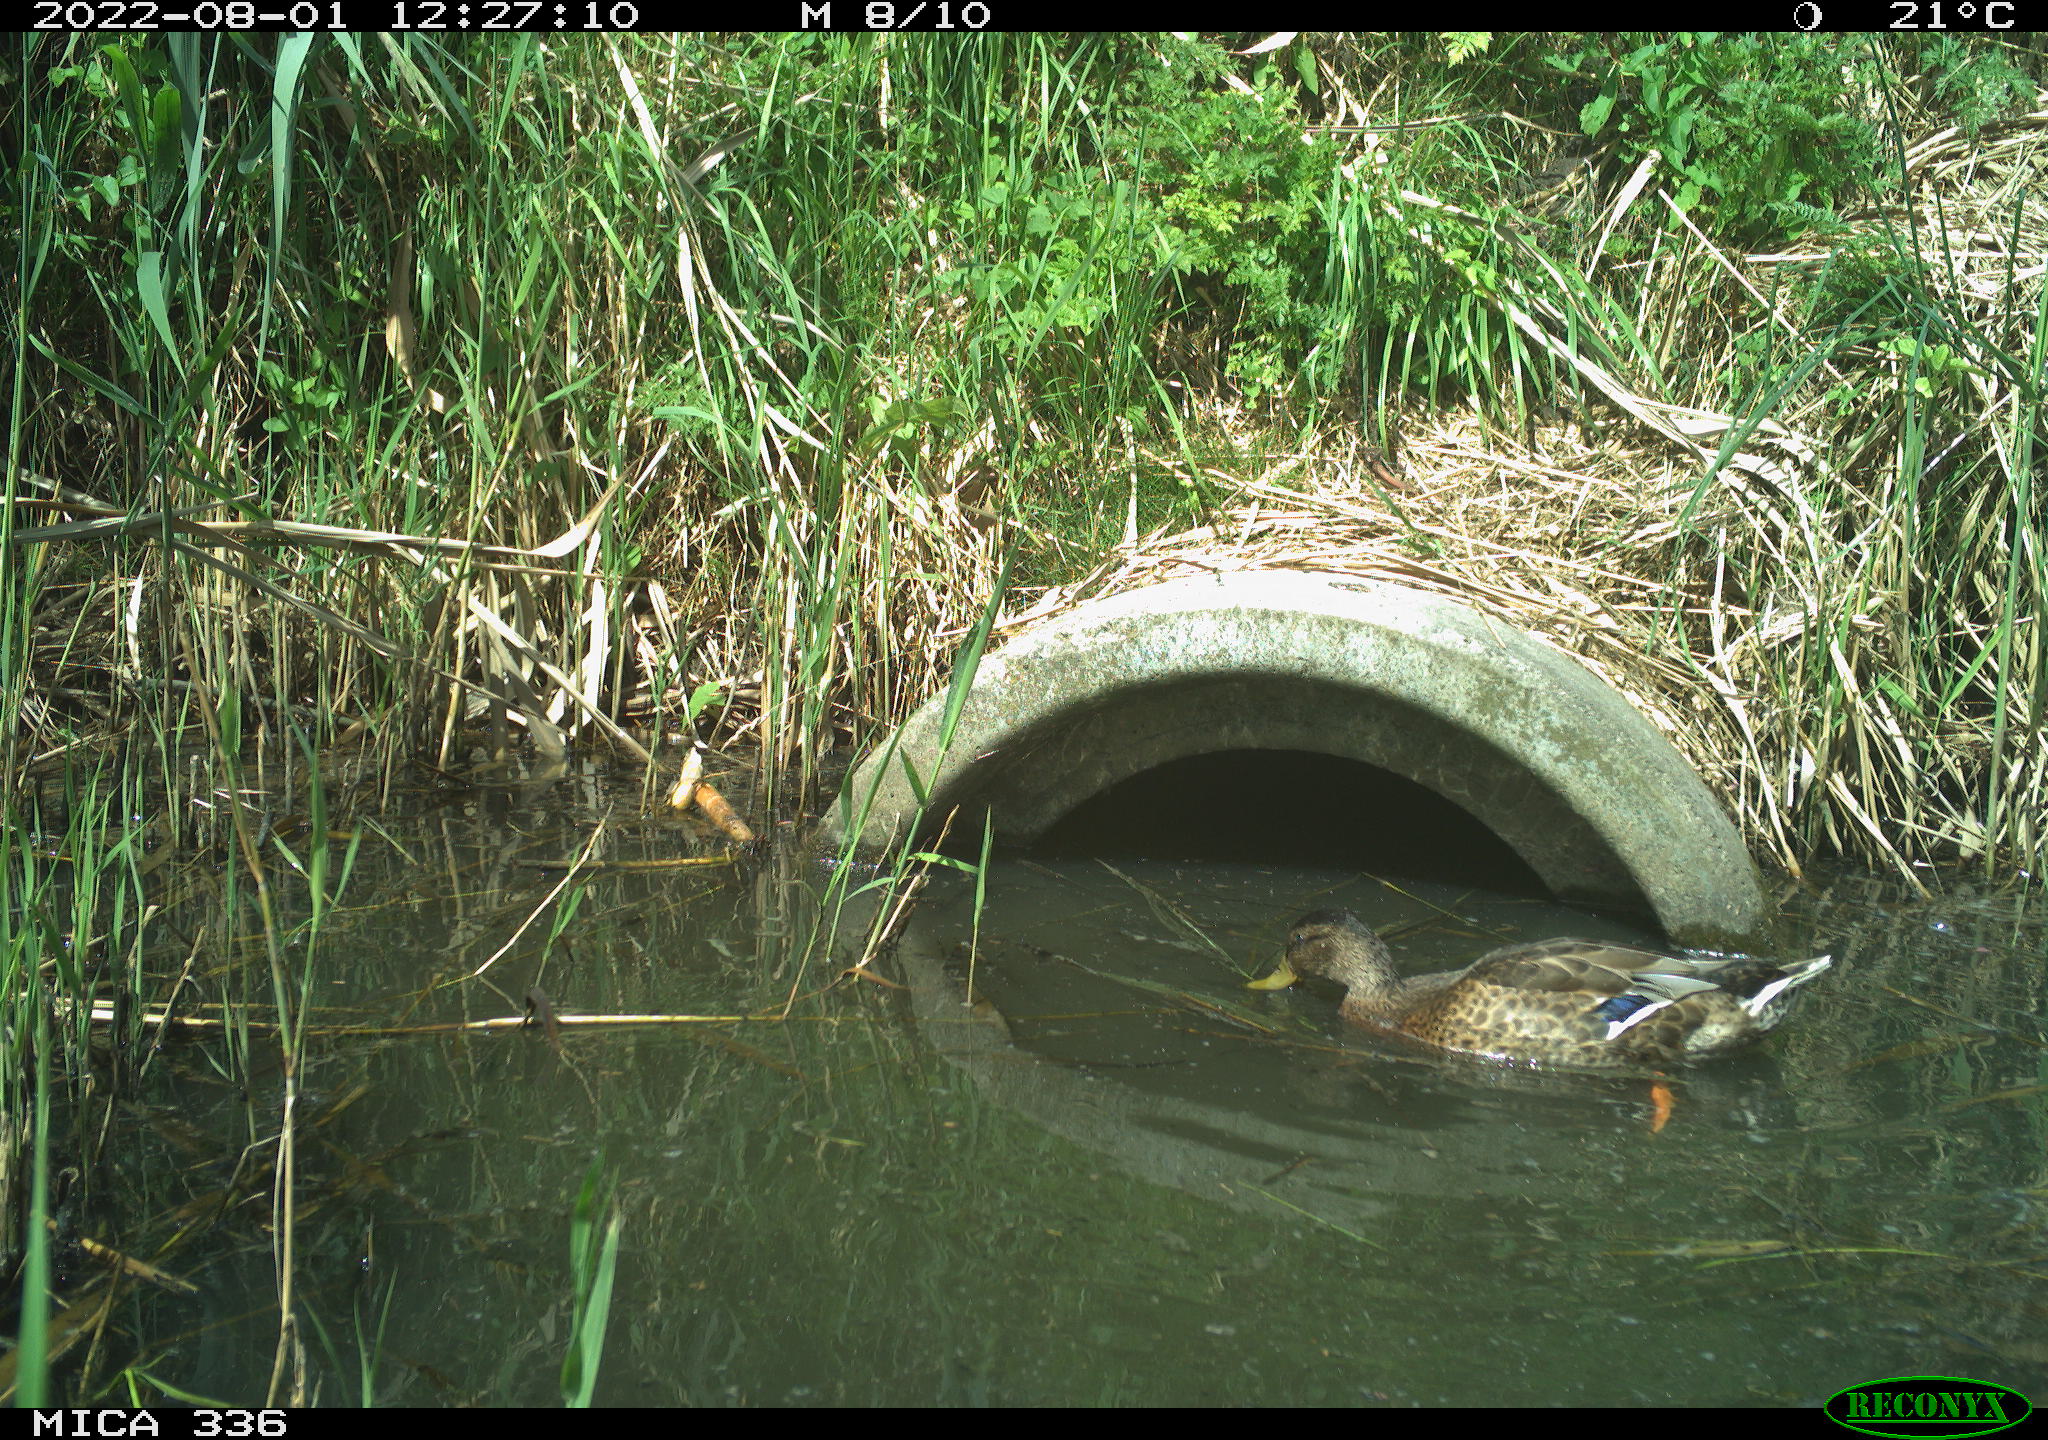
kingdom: Animalia
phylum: Chordata
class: Aves
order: Anseriformes
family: Anatidae
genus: Anas
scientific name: Anas platyrhynchos
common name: Mallard
